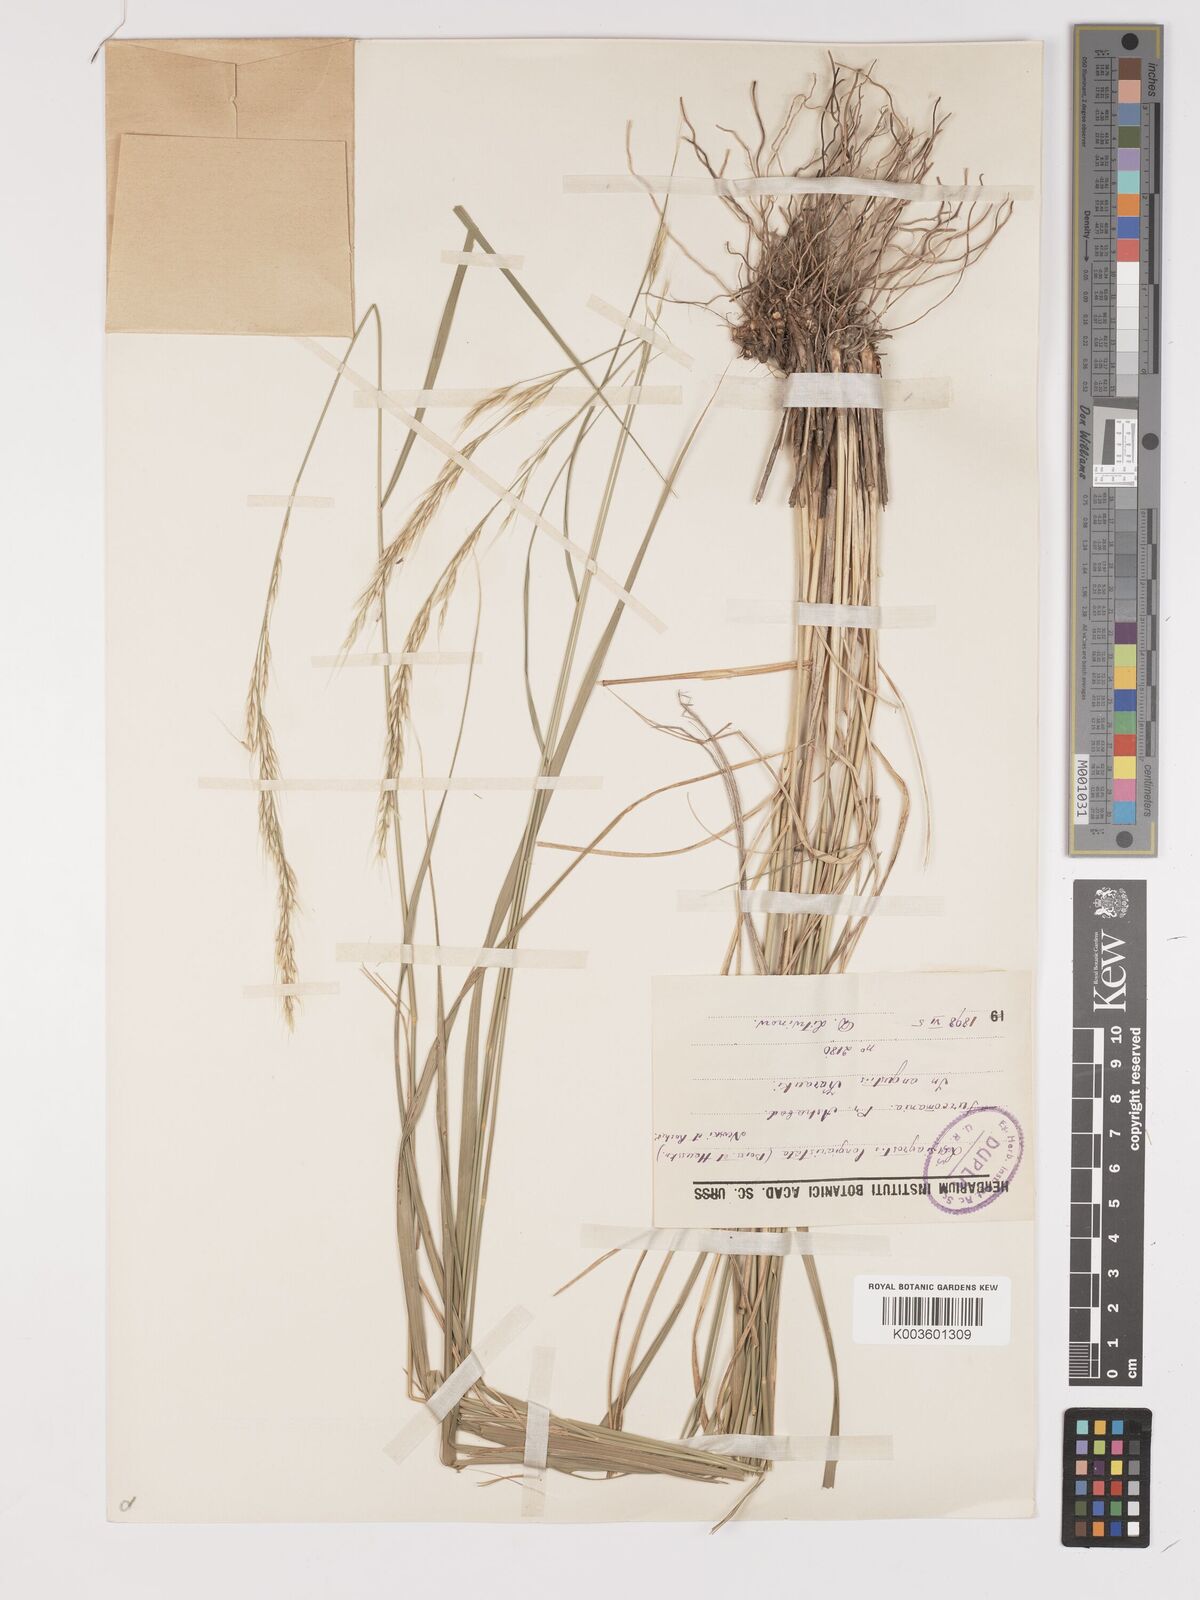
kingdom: Plantae
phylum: Tracheophyta
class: Liliopsida
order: Poales
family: Poaceae
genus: Achnatherum
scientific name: Achnatherum turcomanicum
